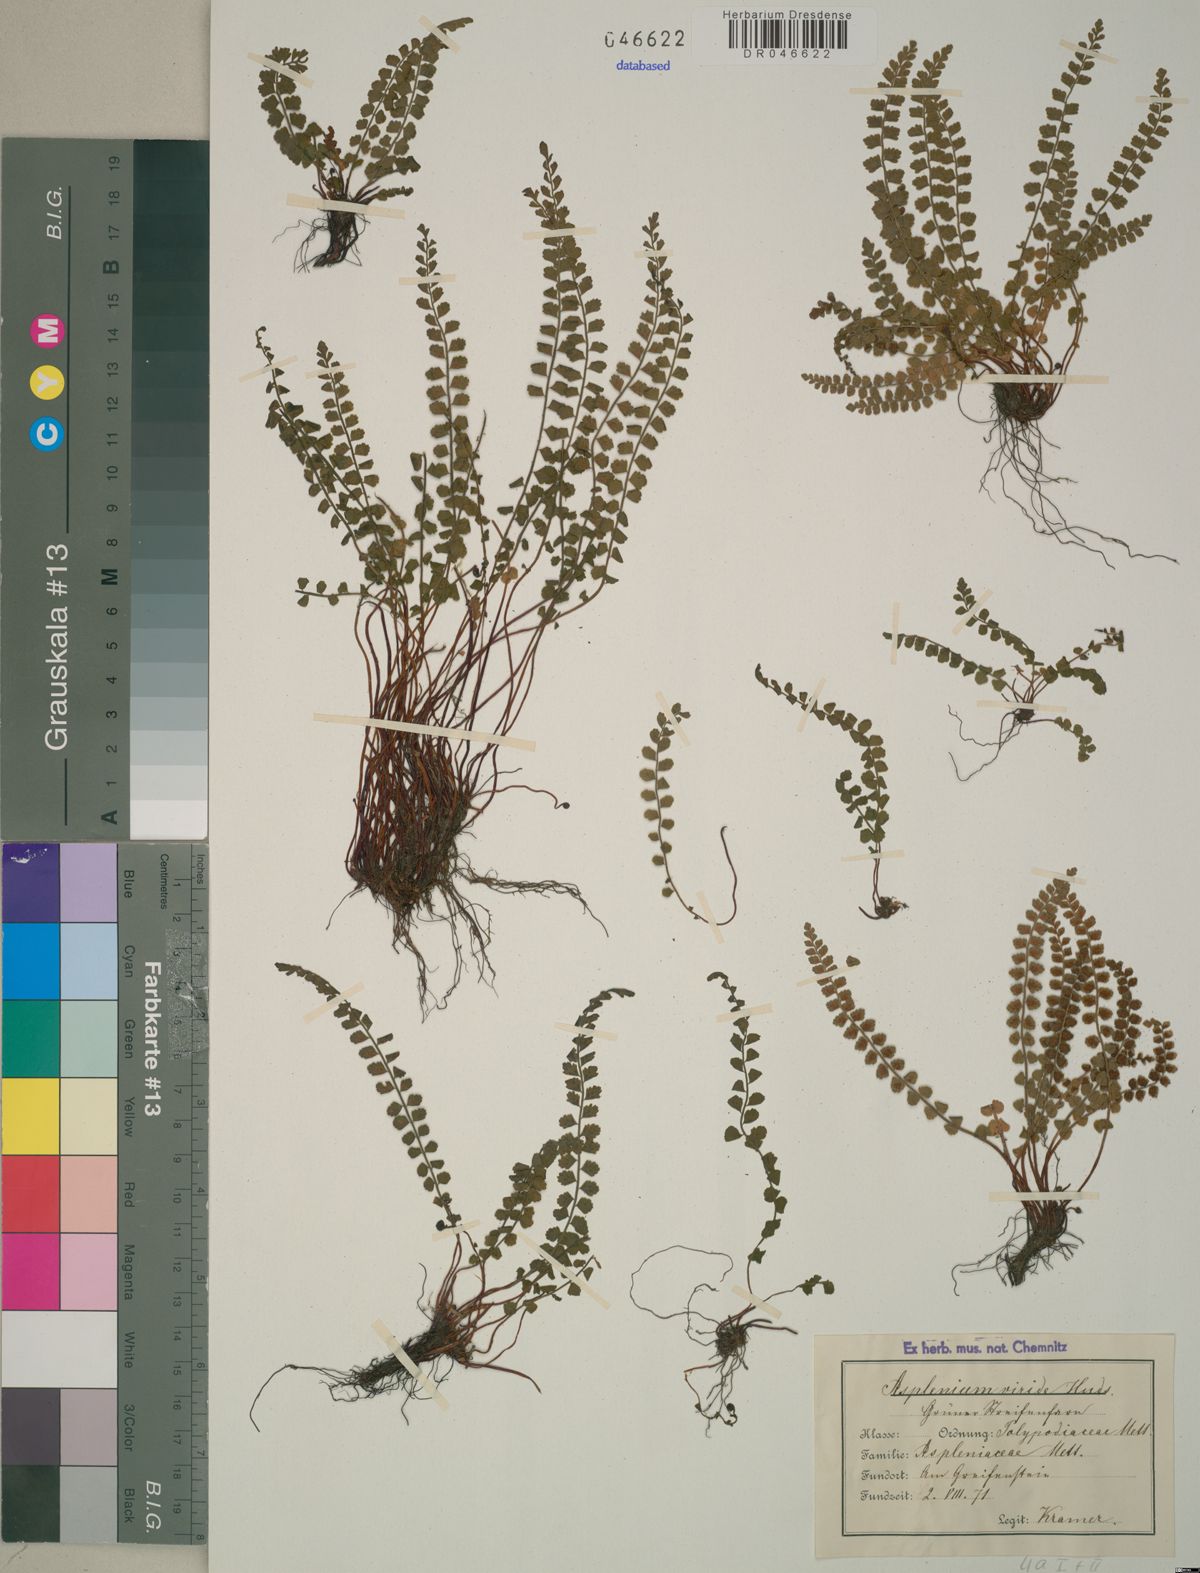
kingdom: Plantae
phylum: Tracheophyta
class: Polypodiopsida
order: Polypodiales
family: Aspleniaceae
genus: Asplenium
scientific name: Asplenium viride
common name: Green spleenwort
